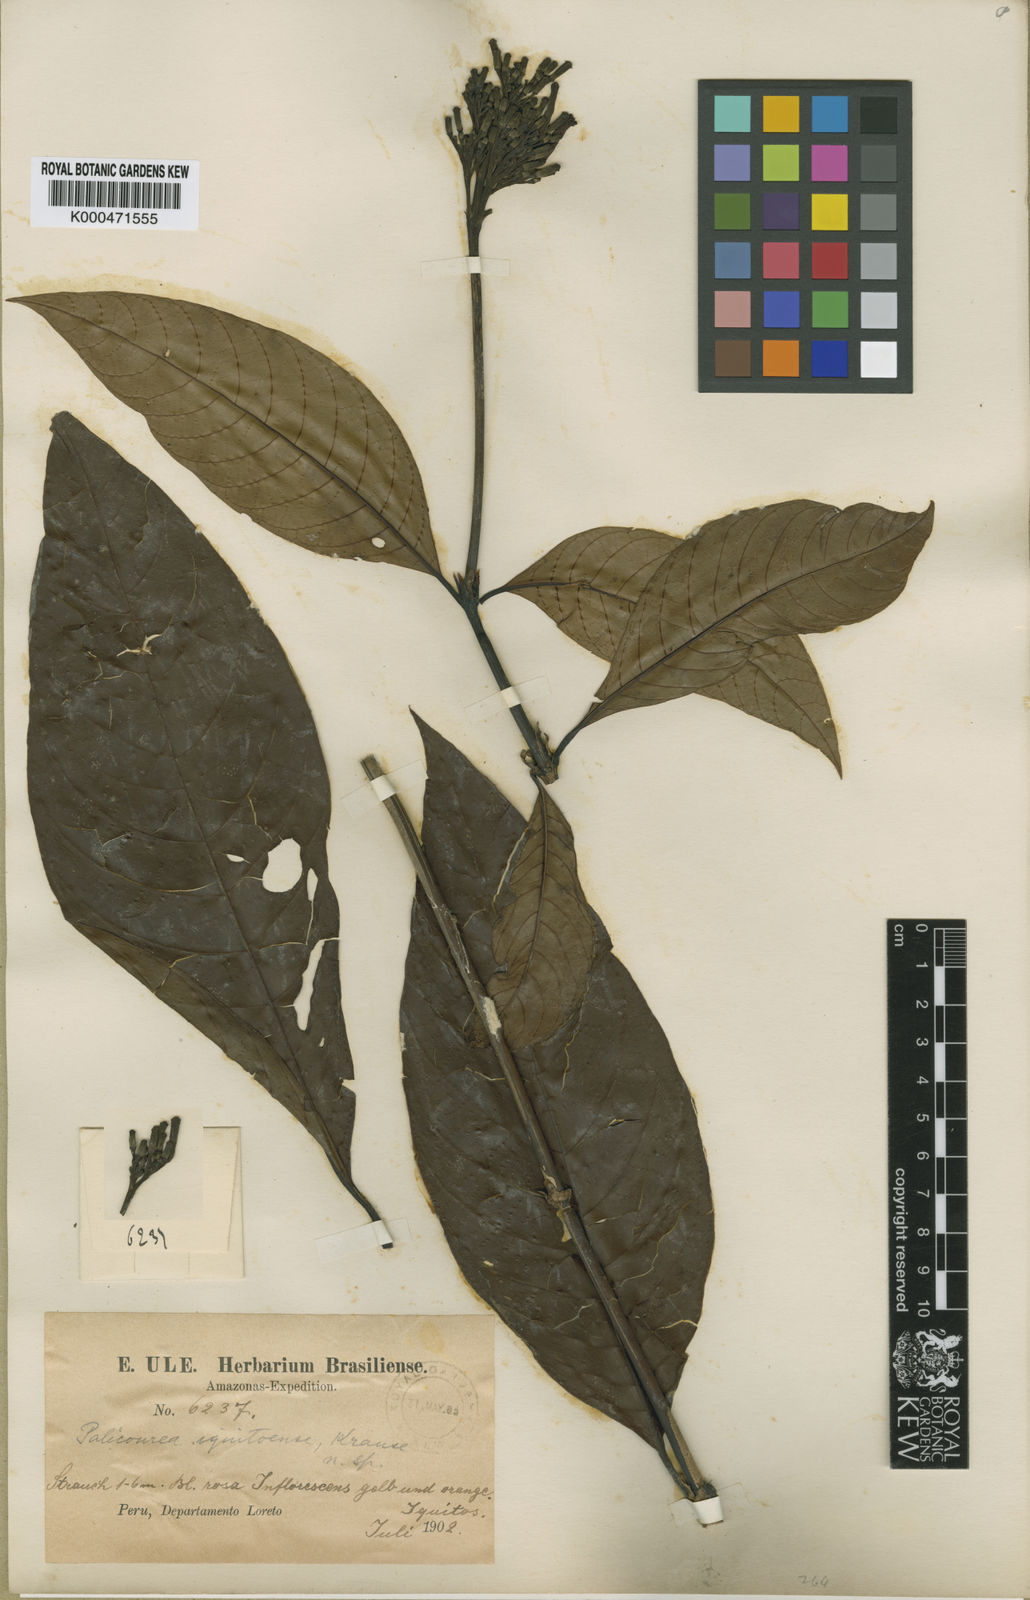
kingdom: Plantae
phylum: Tracheophyta
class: Magnoliopsida
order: Gentianales
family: Rubiaceae
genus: Palicourea
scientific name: Palicourea iquitoensis
